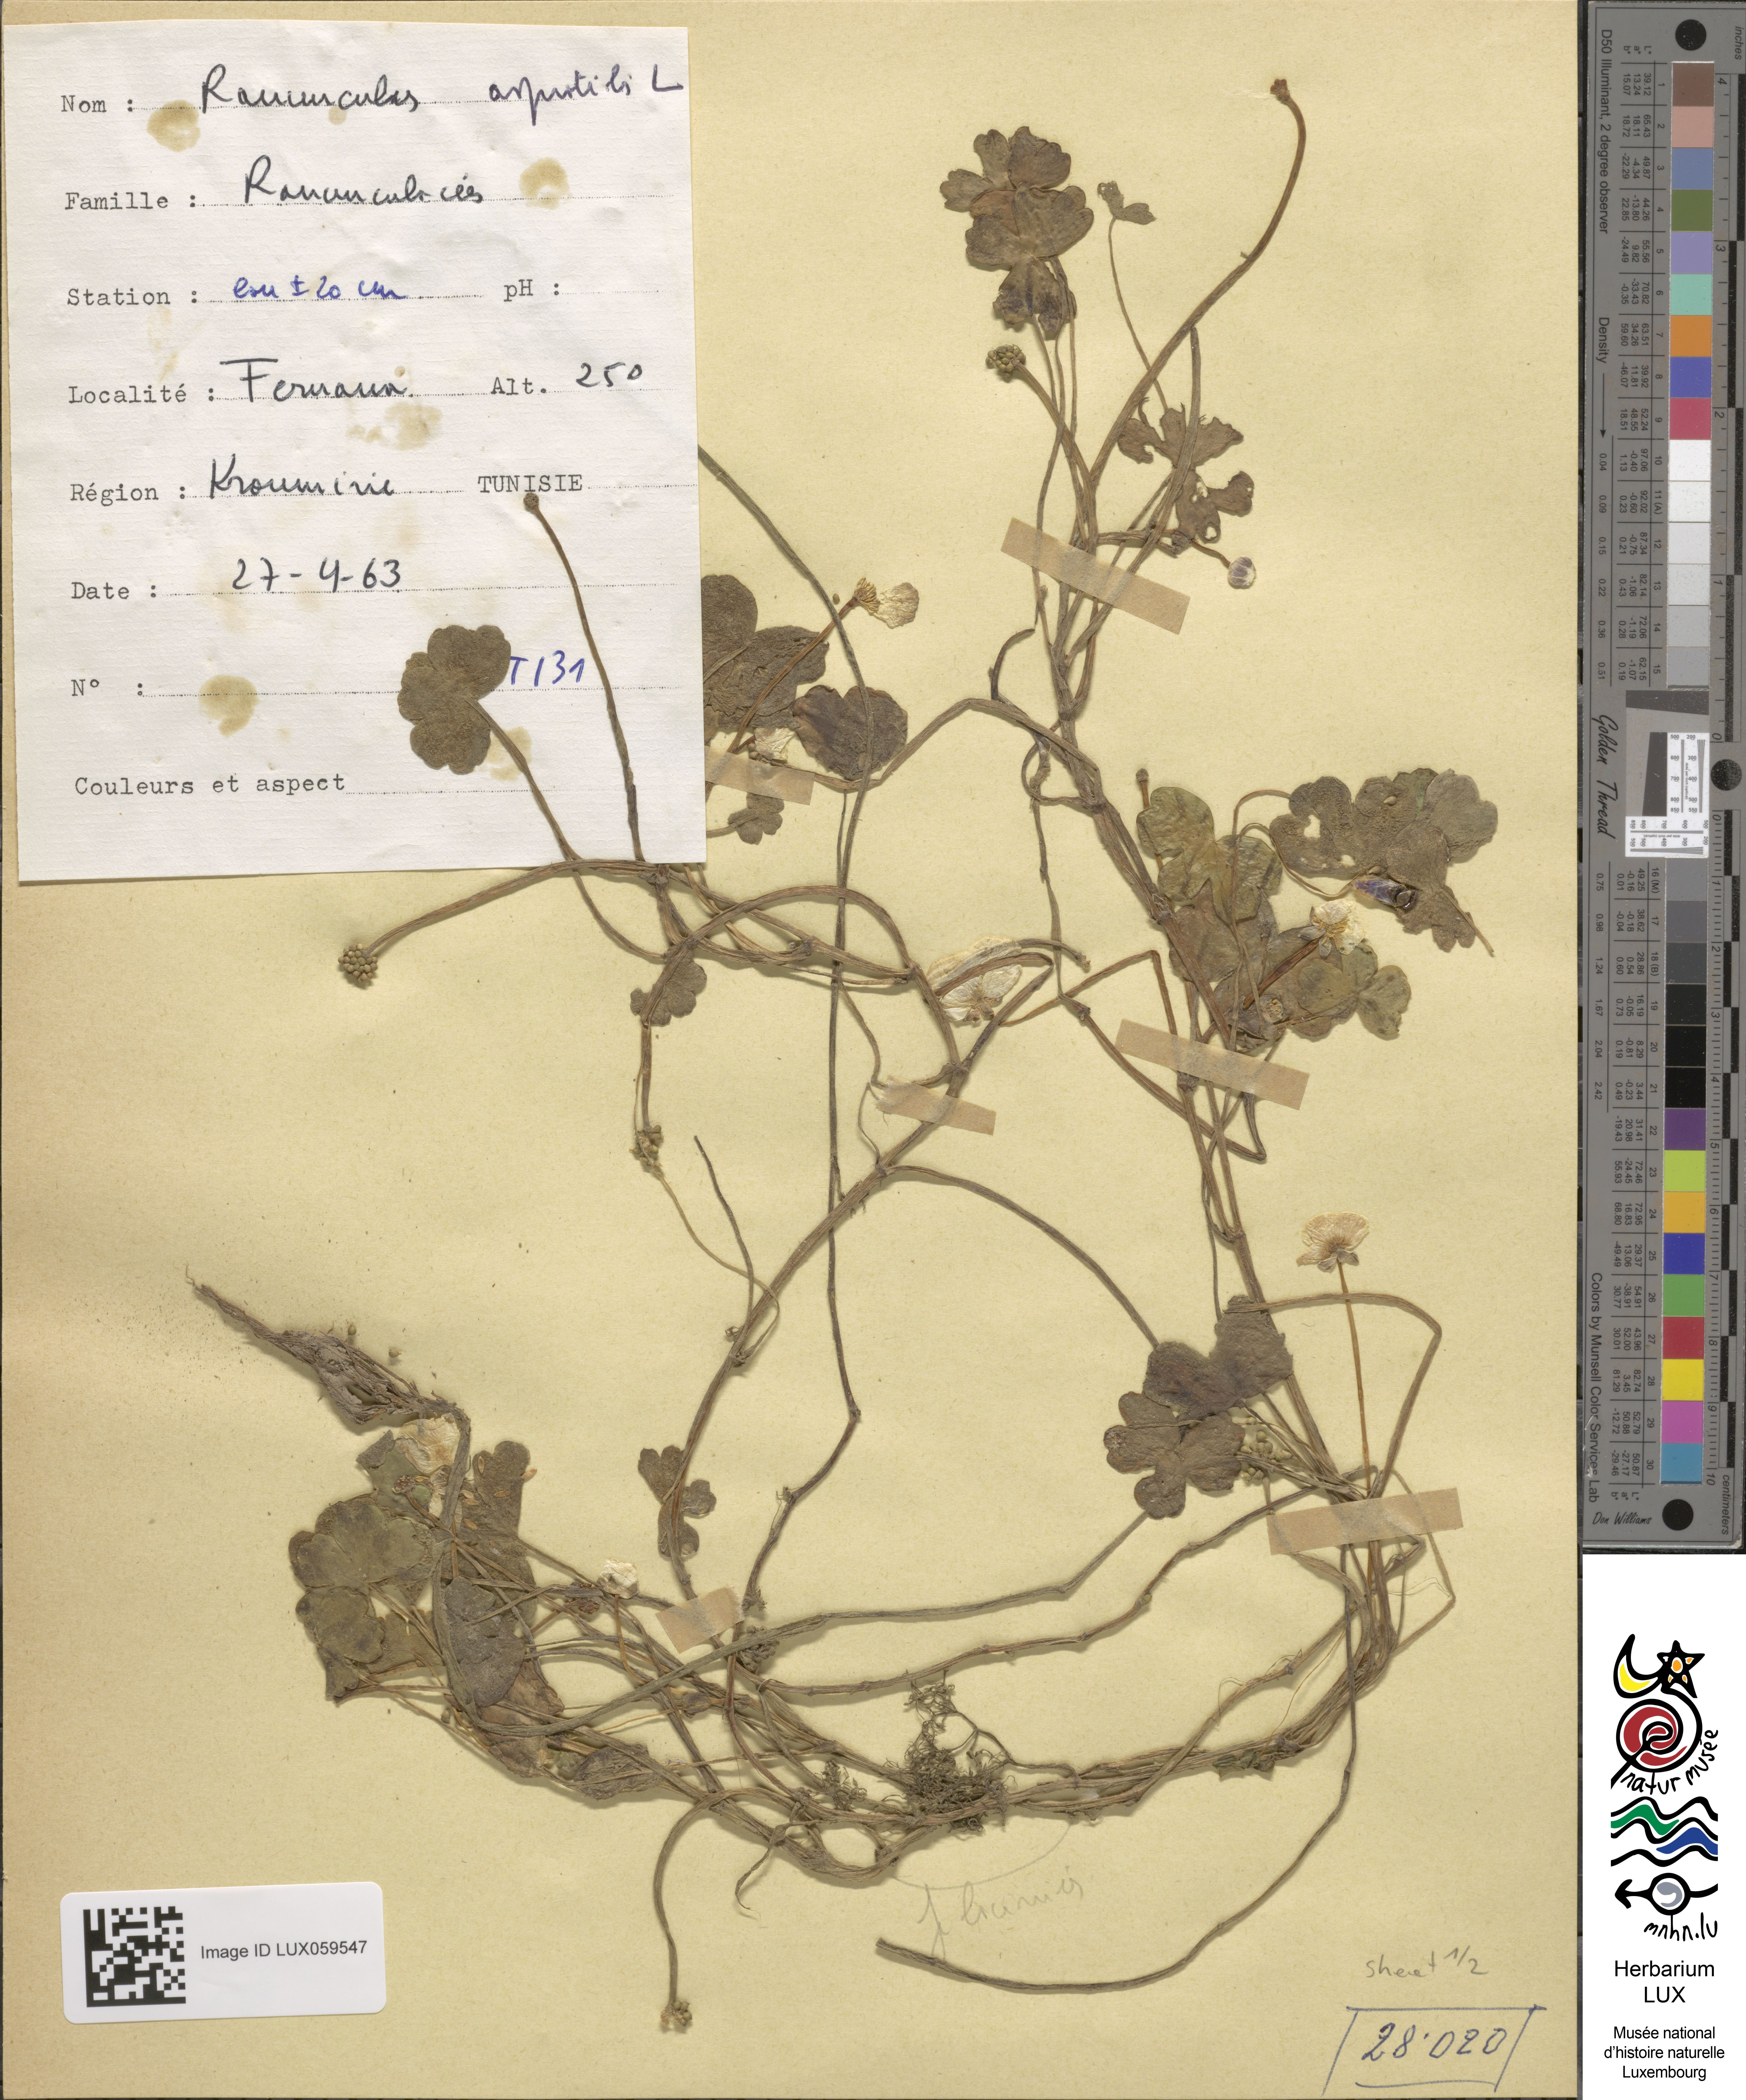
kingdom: Plantae
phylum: Tracheophyta
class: Magnoliopsida
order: Ranunculales
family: Ranunculaceae
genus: Ranunculus
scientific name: Ranunculus aquatilis
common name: Common water-crowfoot
